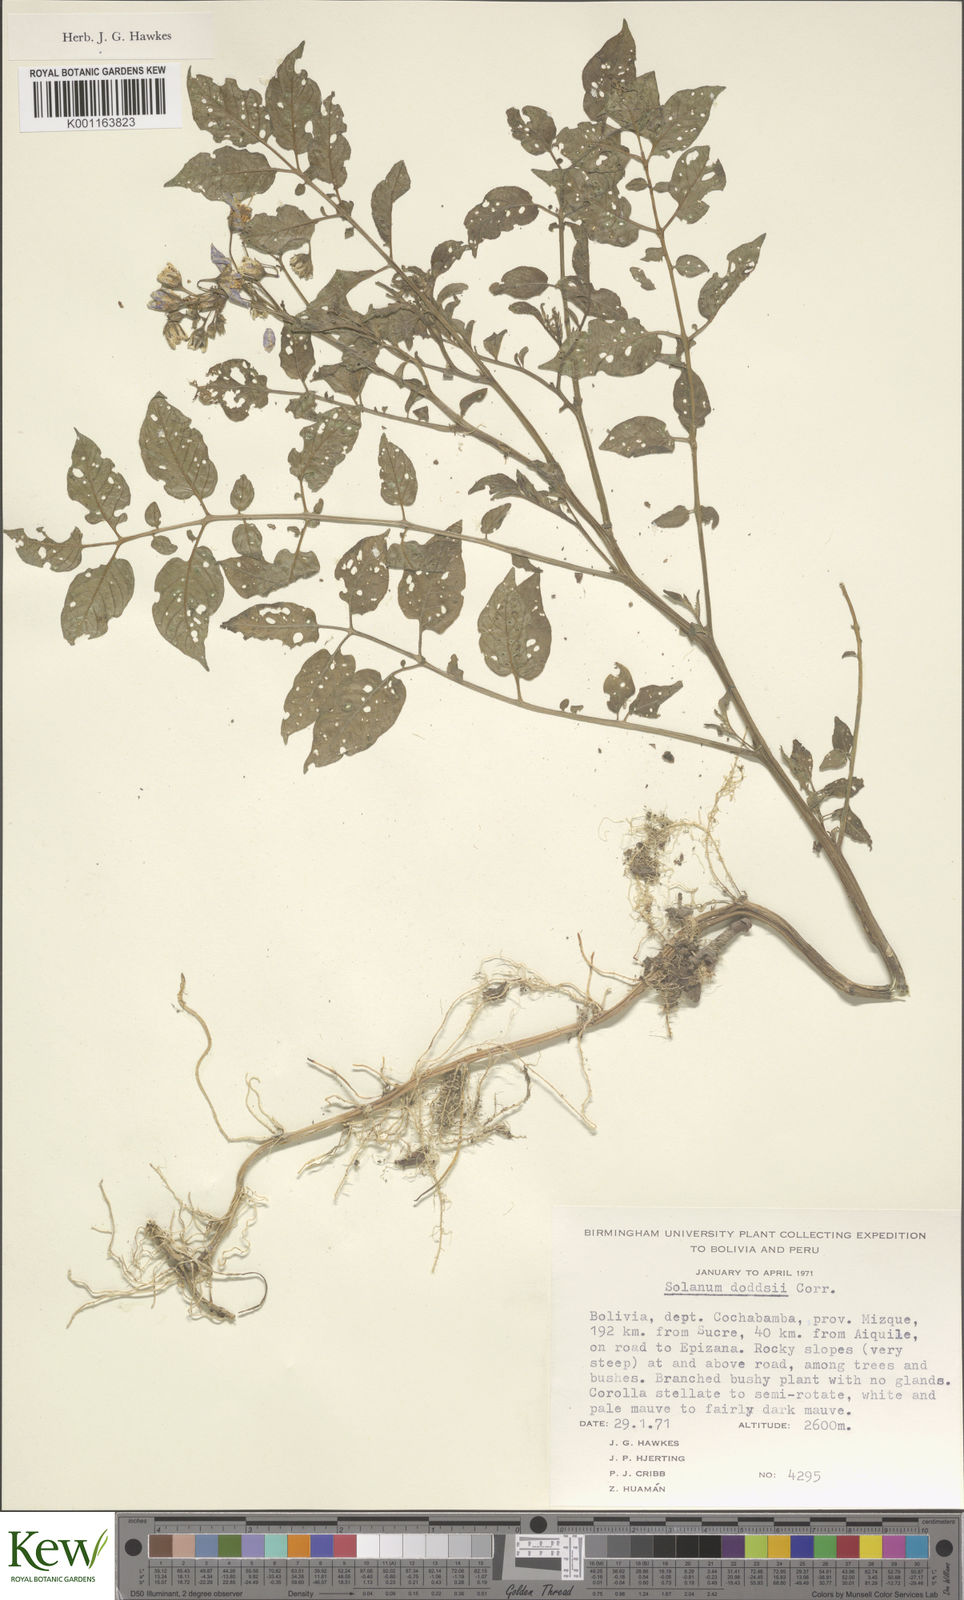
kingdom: Plantae
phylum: Tracheophyta
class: Magnoliopsida
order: Solanales
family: Solanaceae
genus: Solanum
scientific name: Solanum doddsii
